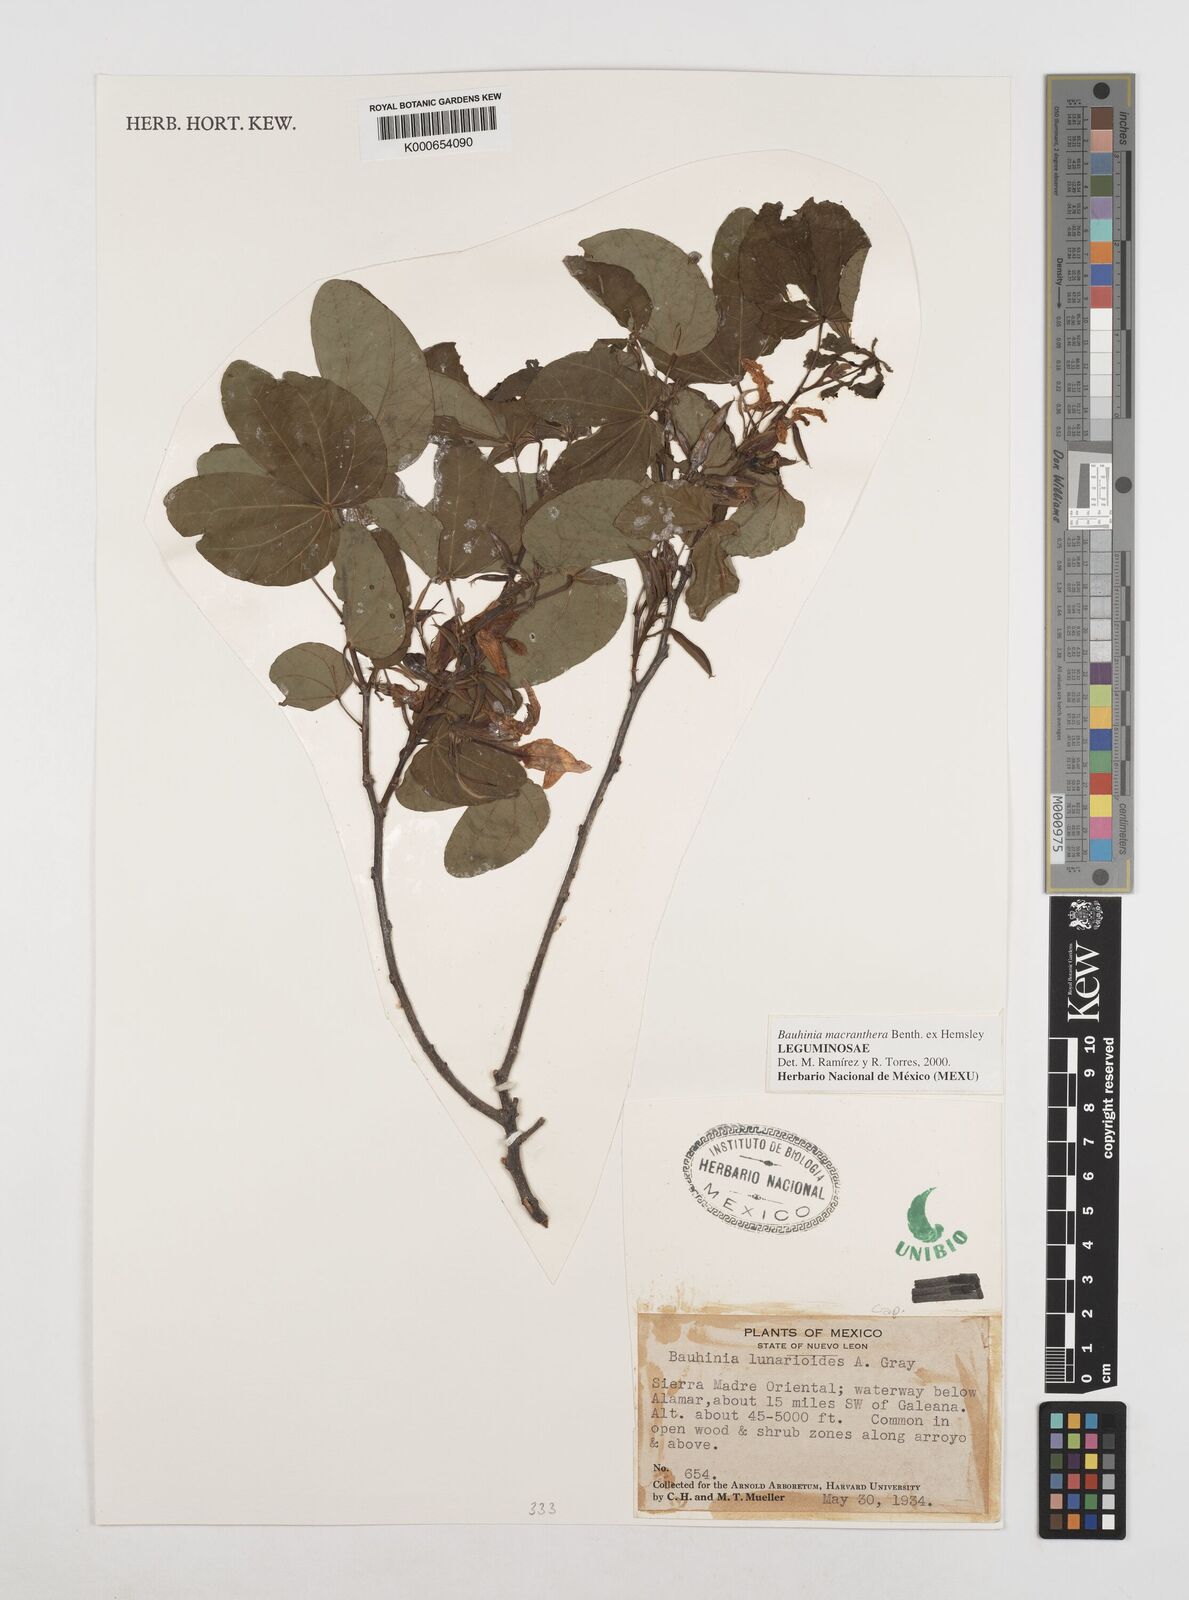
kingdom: Plantae
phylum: Tracheophyta
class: Magnoliopsida
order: Fabales
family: Fabaceae
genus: Bauhinia
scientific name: Bauhinia macranthera
